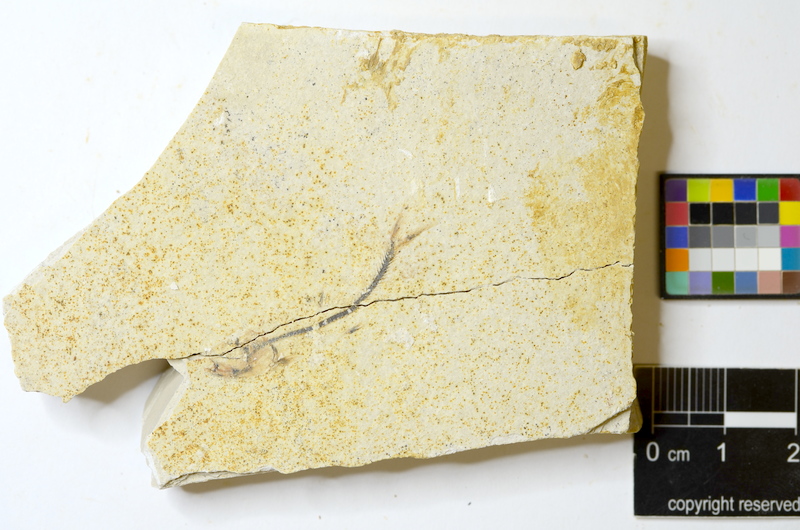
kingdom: Animalia
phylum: Chordata
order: Salmoniformes
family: Orthogonikleithridae
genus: Orthogonikleithrus
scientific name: Orthogonikleithrus hoelli
